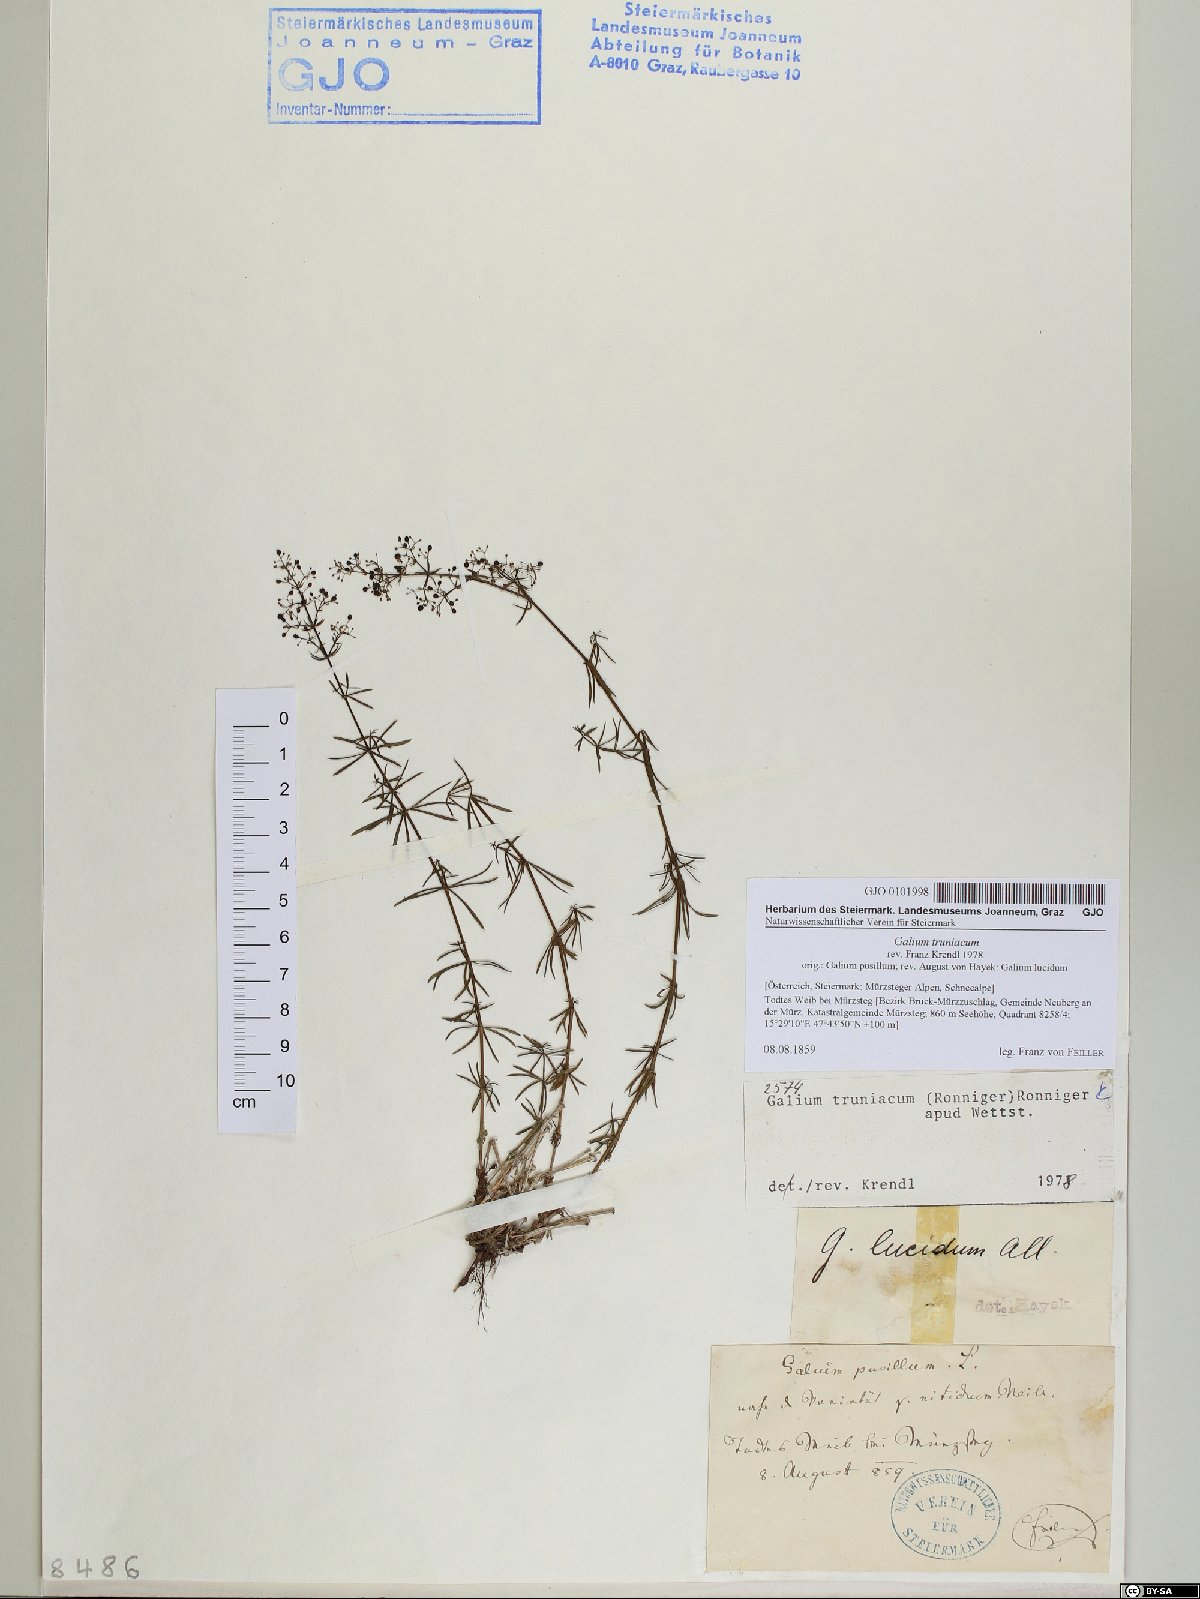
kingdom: Plantae
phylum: Tracheophyta
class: Magnoliopsida
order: Gentianales
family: Rubiaceae
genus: Galium
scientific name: Galium truniacum
